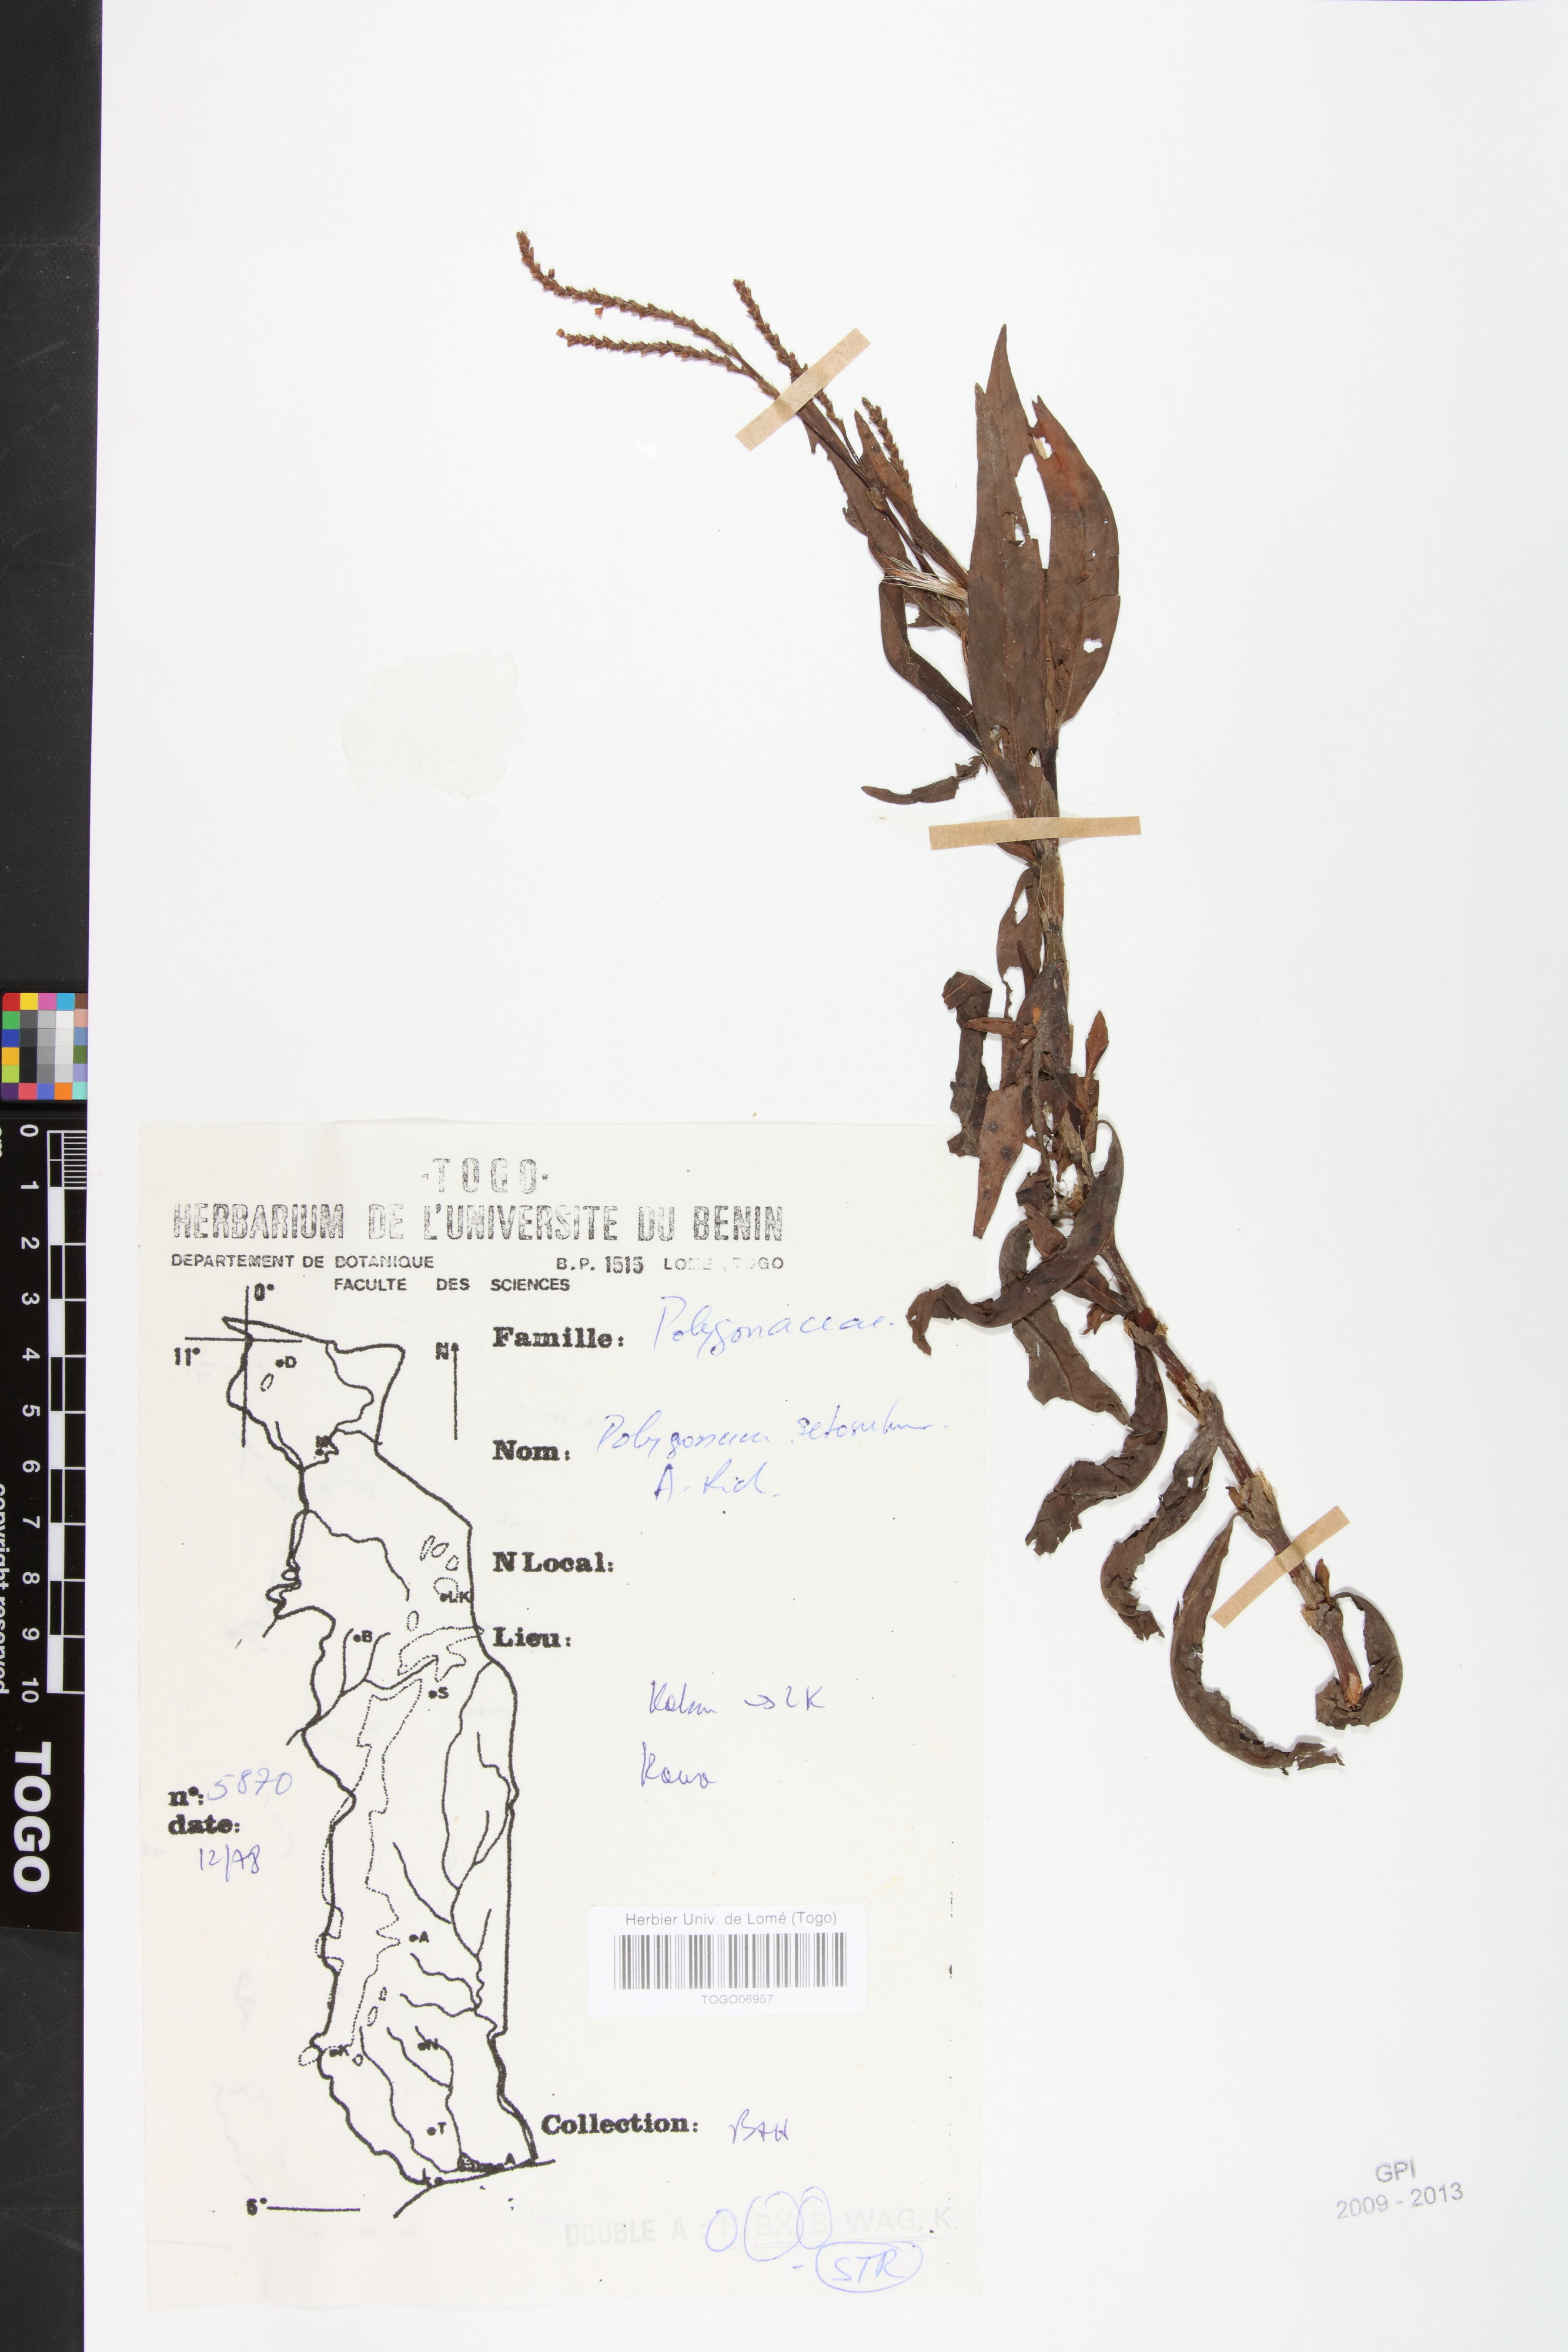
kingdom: Plantae
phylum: Tracheophyta
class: Magnoliopsida
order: Caryophyllales
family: Polygonaceae
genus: Persicaria
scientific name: Persicaria setosula
